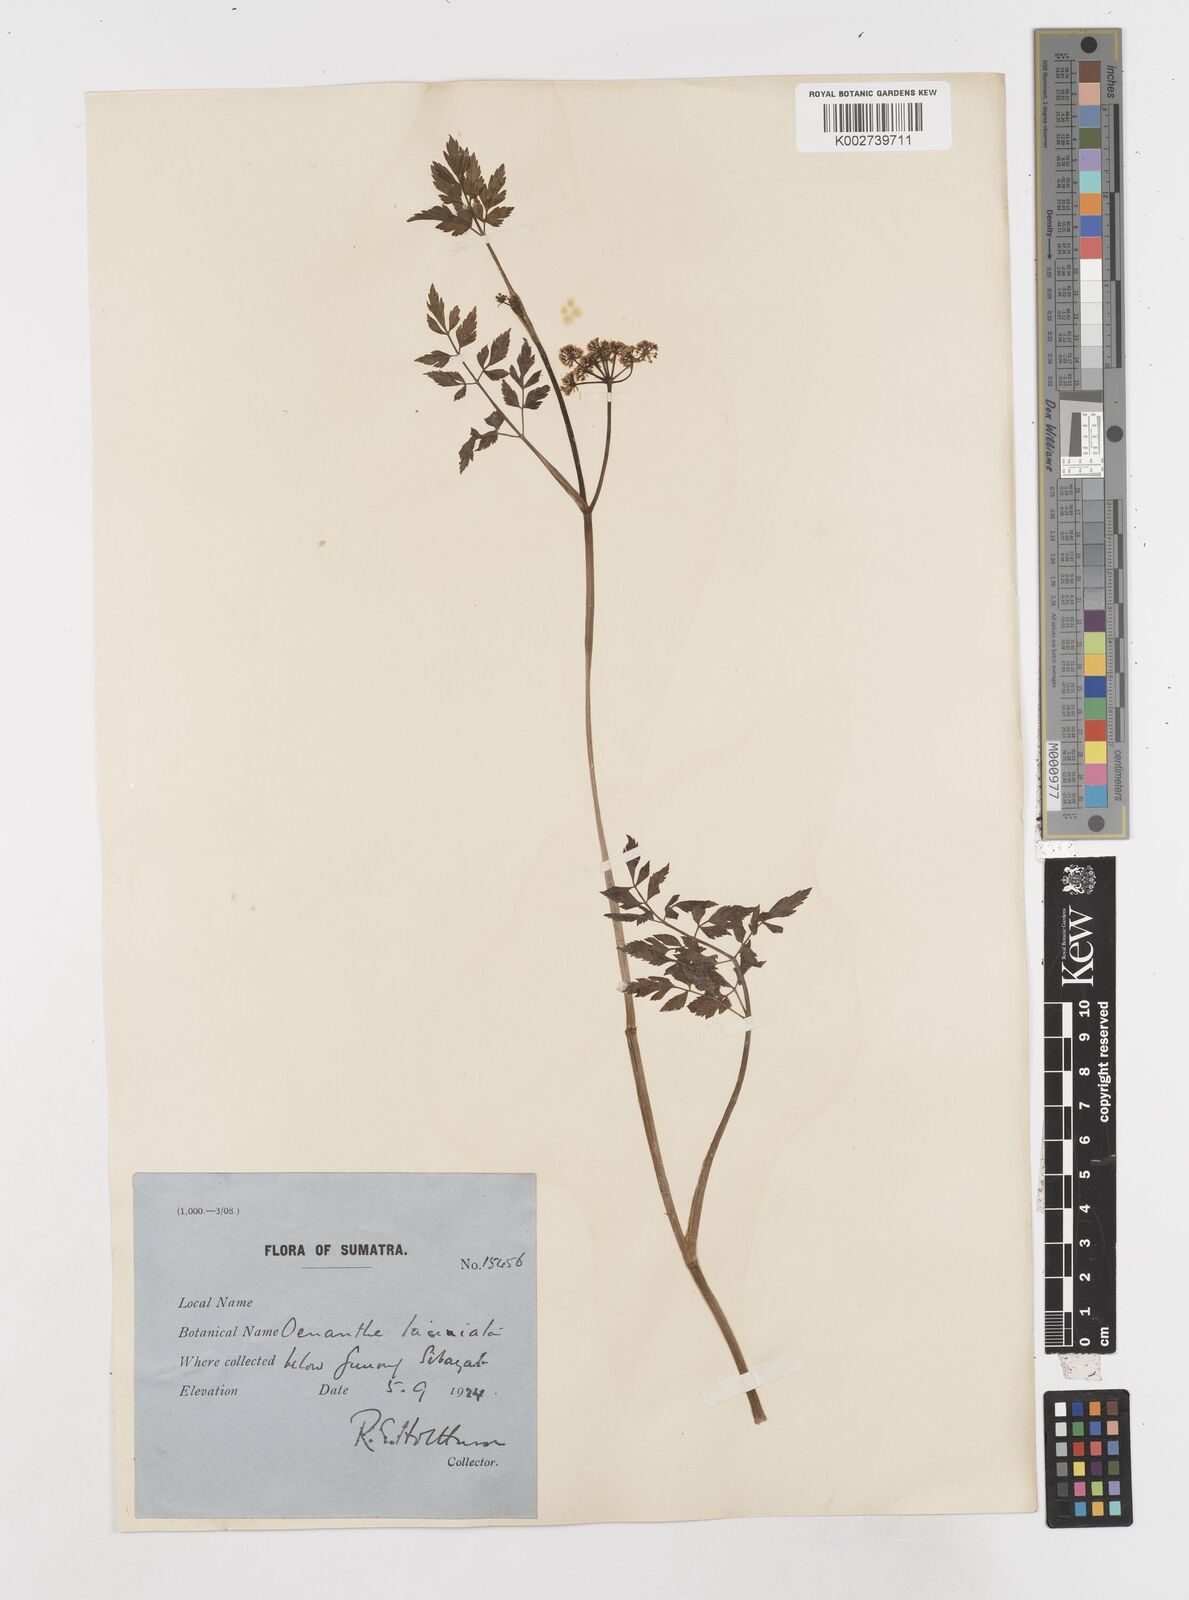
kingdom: Plantae
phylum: Tracheophyta
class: Magnoliopsida
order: Apiales
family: Apiaceae
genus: Oenanthe
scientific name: Oenanthe javanica
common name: Java water-dropwort
